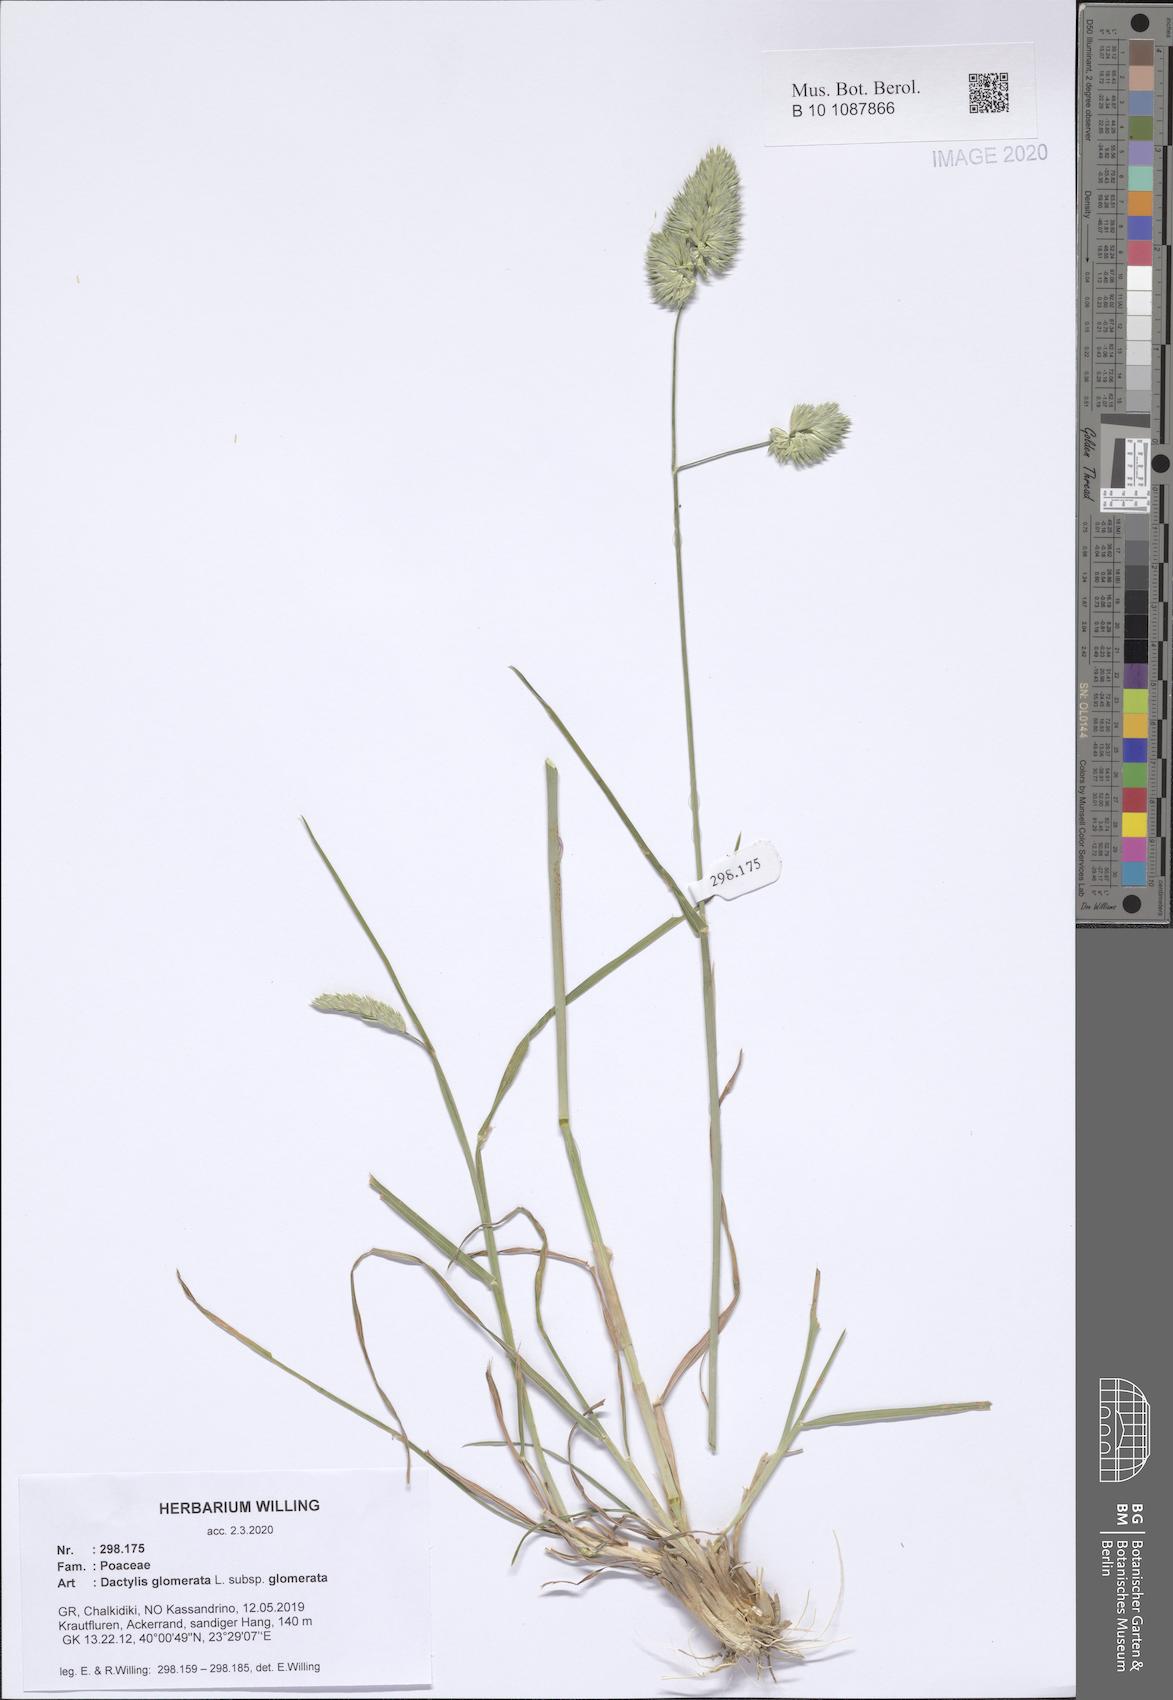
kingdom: Plantae
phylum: Tracheophyta
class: Liliopsida
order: Poales
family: Poaceae
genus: Dactylis
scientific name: Dactylis glomerata
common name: Orchardgrass
